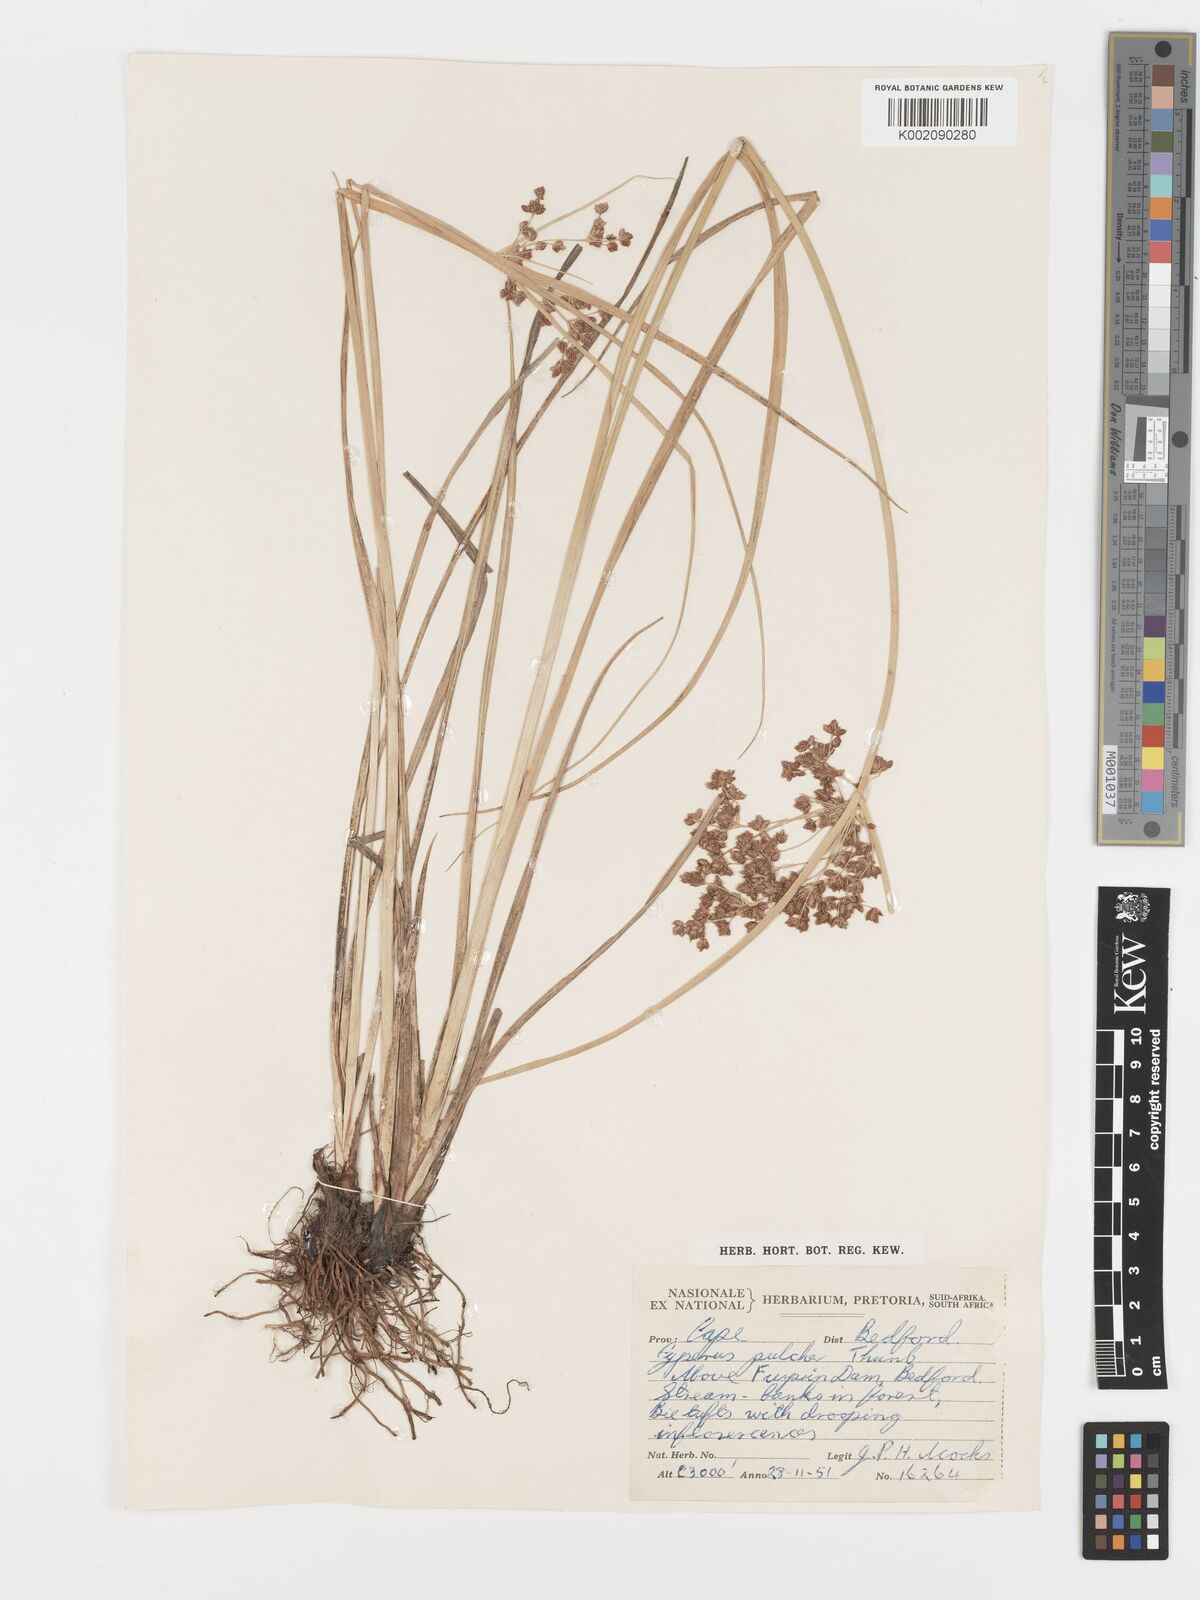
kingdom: Plantae
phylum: Tracheophyta
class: Liliopsida
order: Poales
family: Cyperaceae
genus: Cyperus
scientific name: Cyperus pulcher
